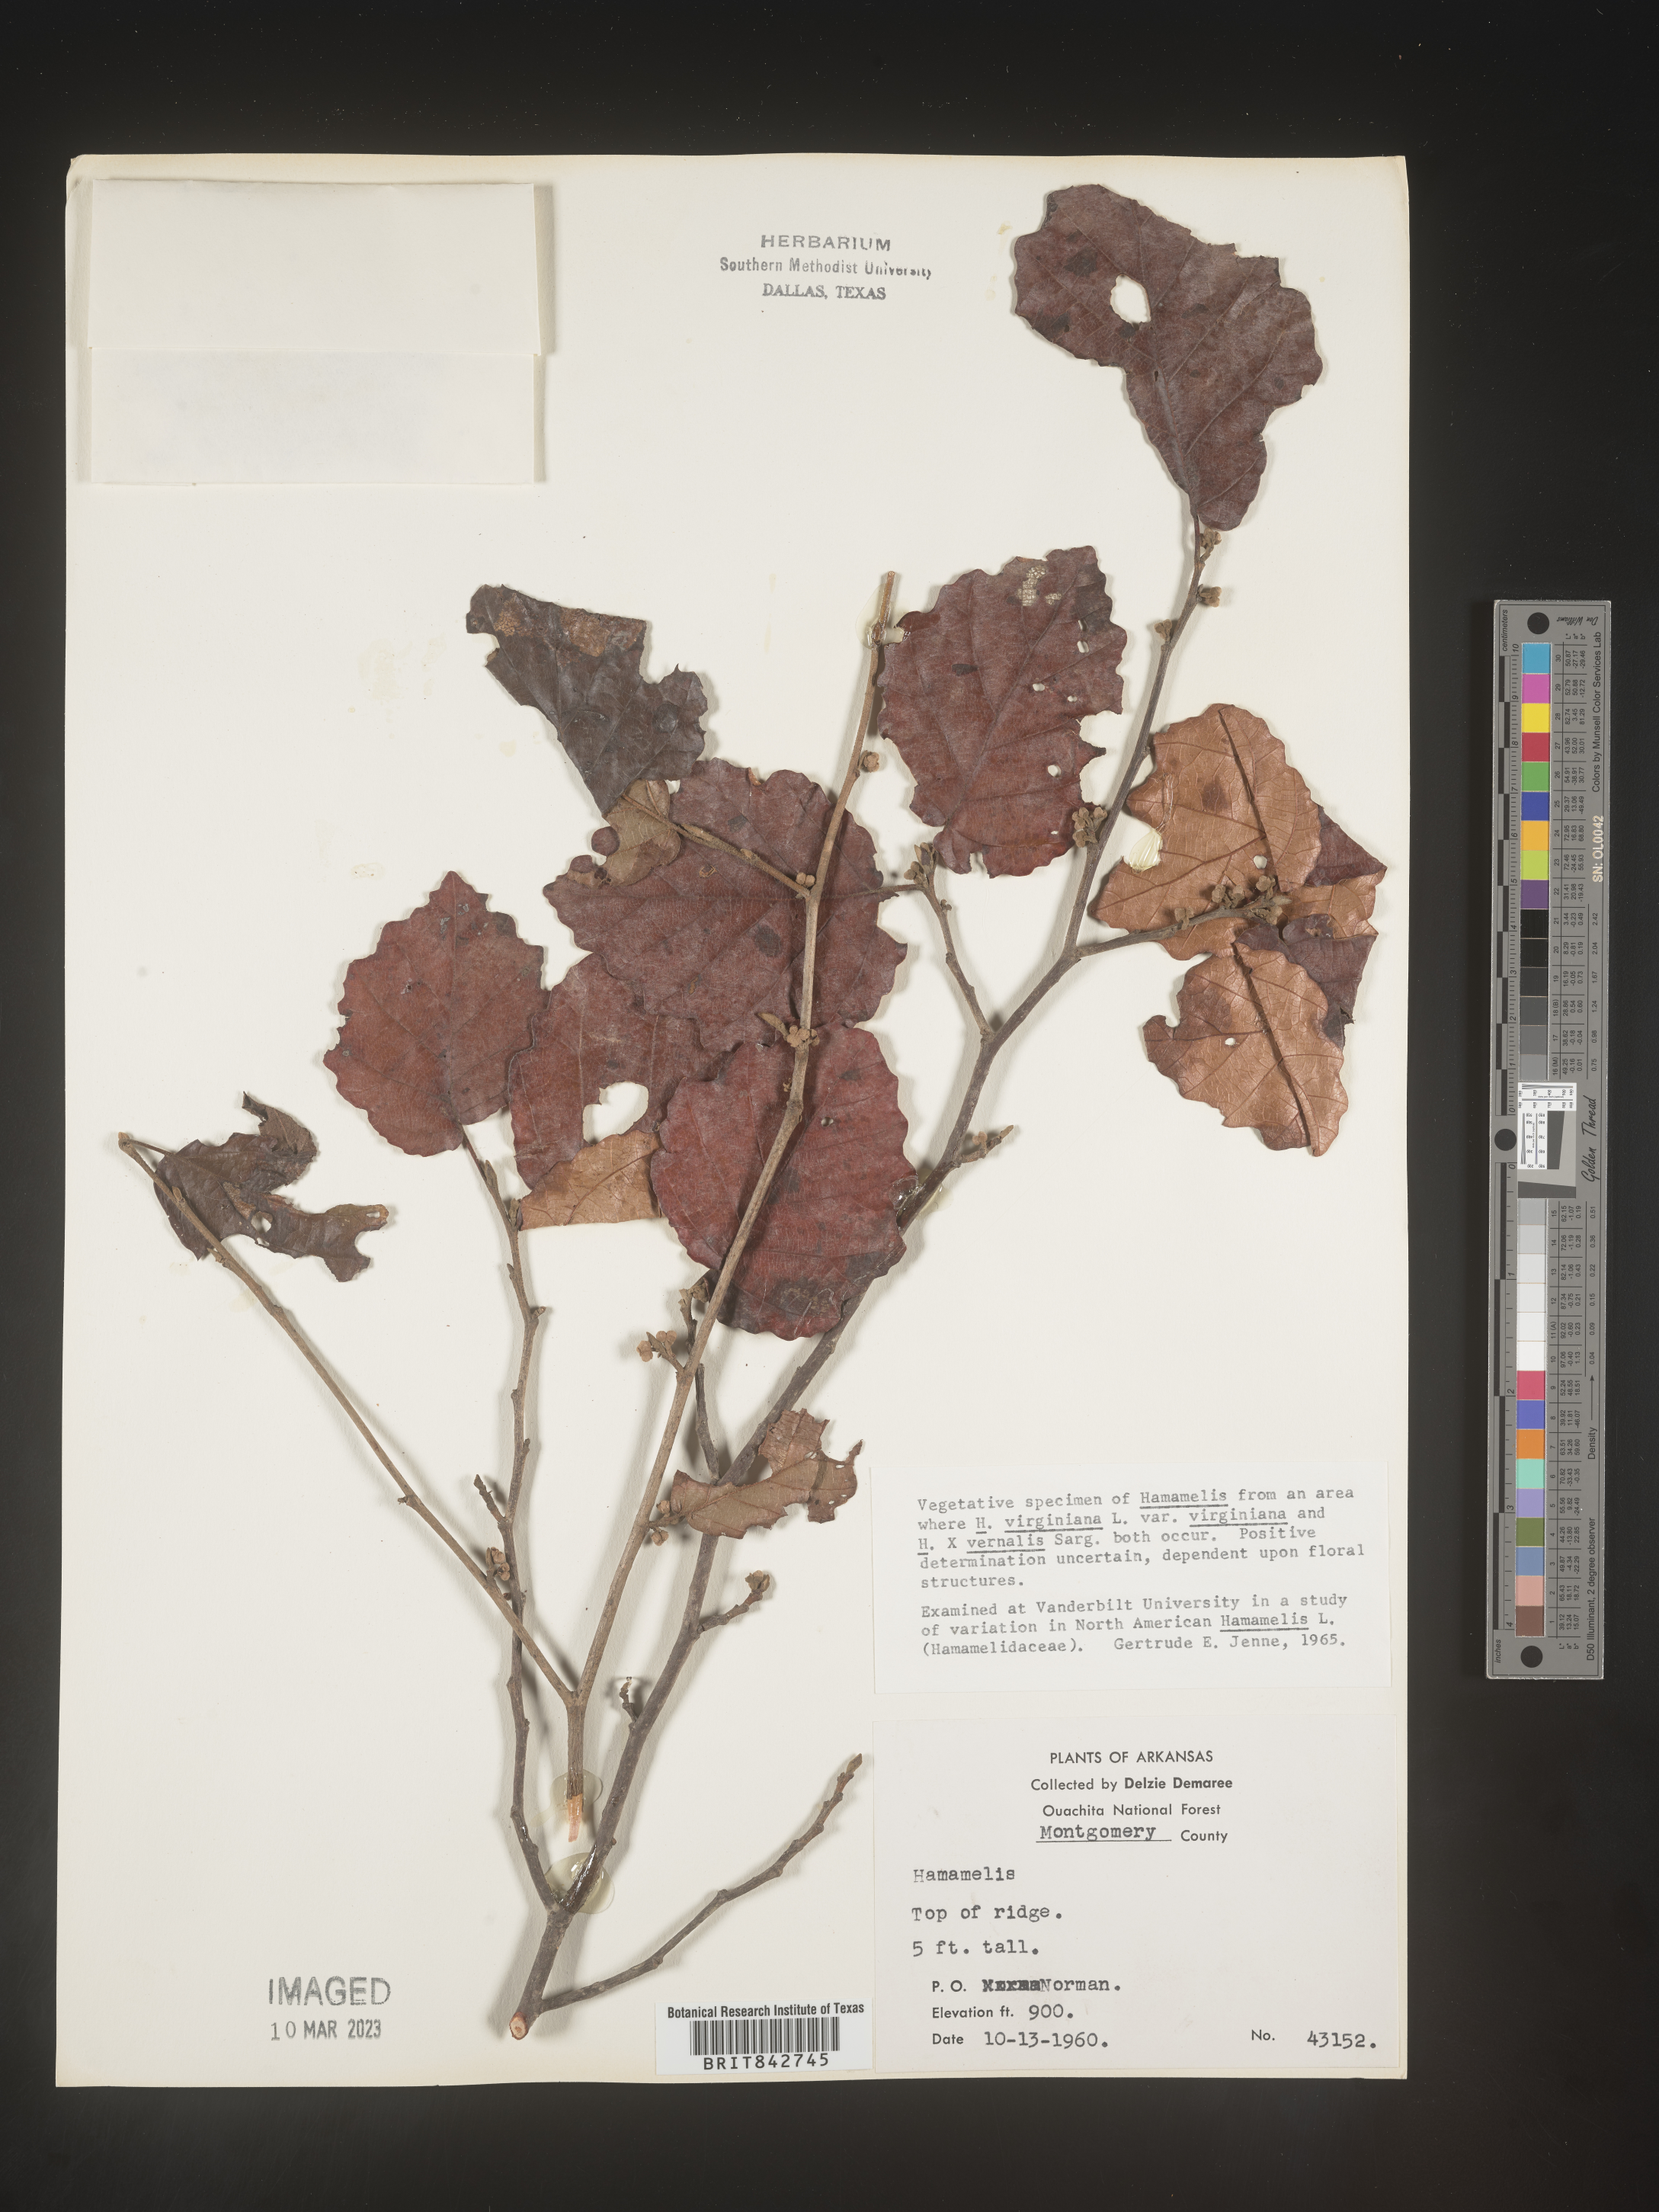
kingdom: Plantae
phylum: Tracheophyta
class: Magnoliopsida
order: Saxifragales
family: Hamamelidaceae
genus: Hamamelis
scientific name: Hamamelis virginiana
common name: Witch-hazel
